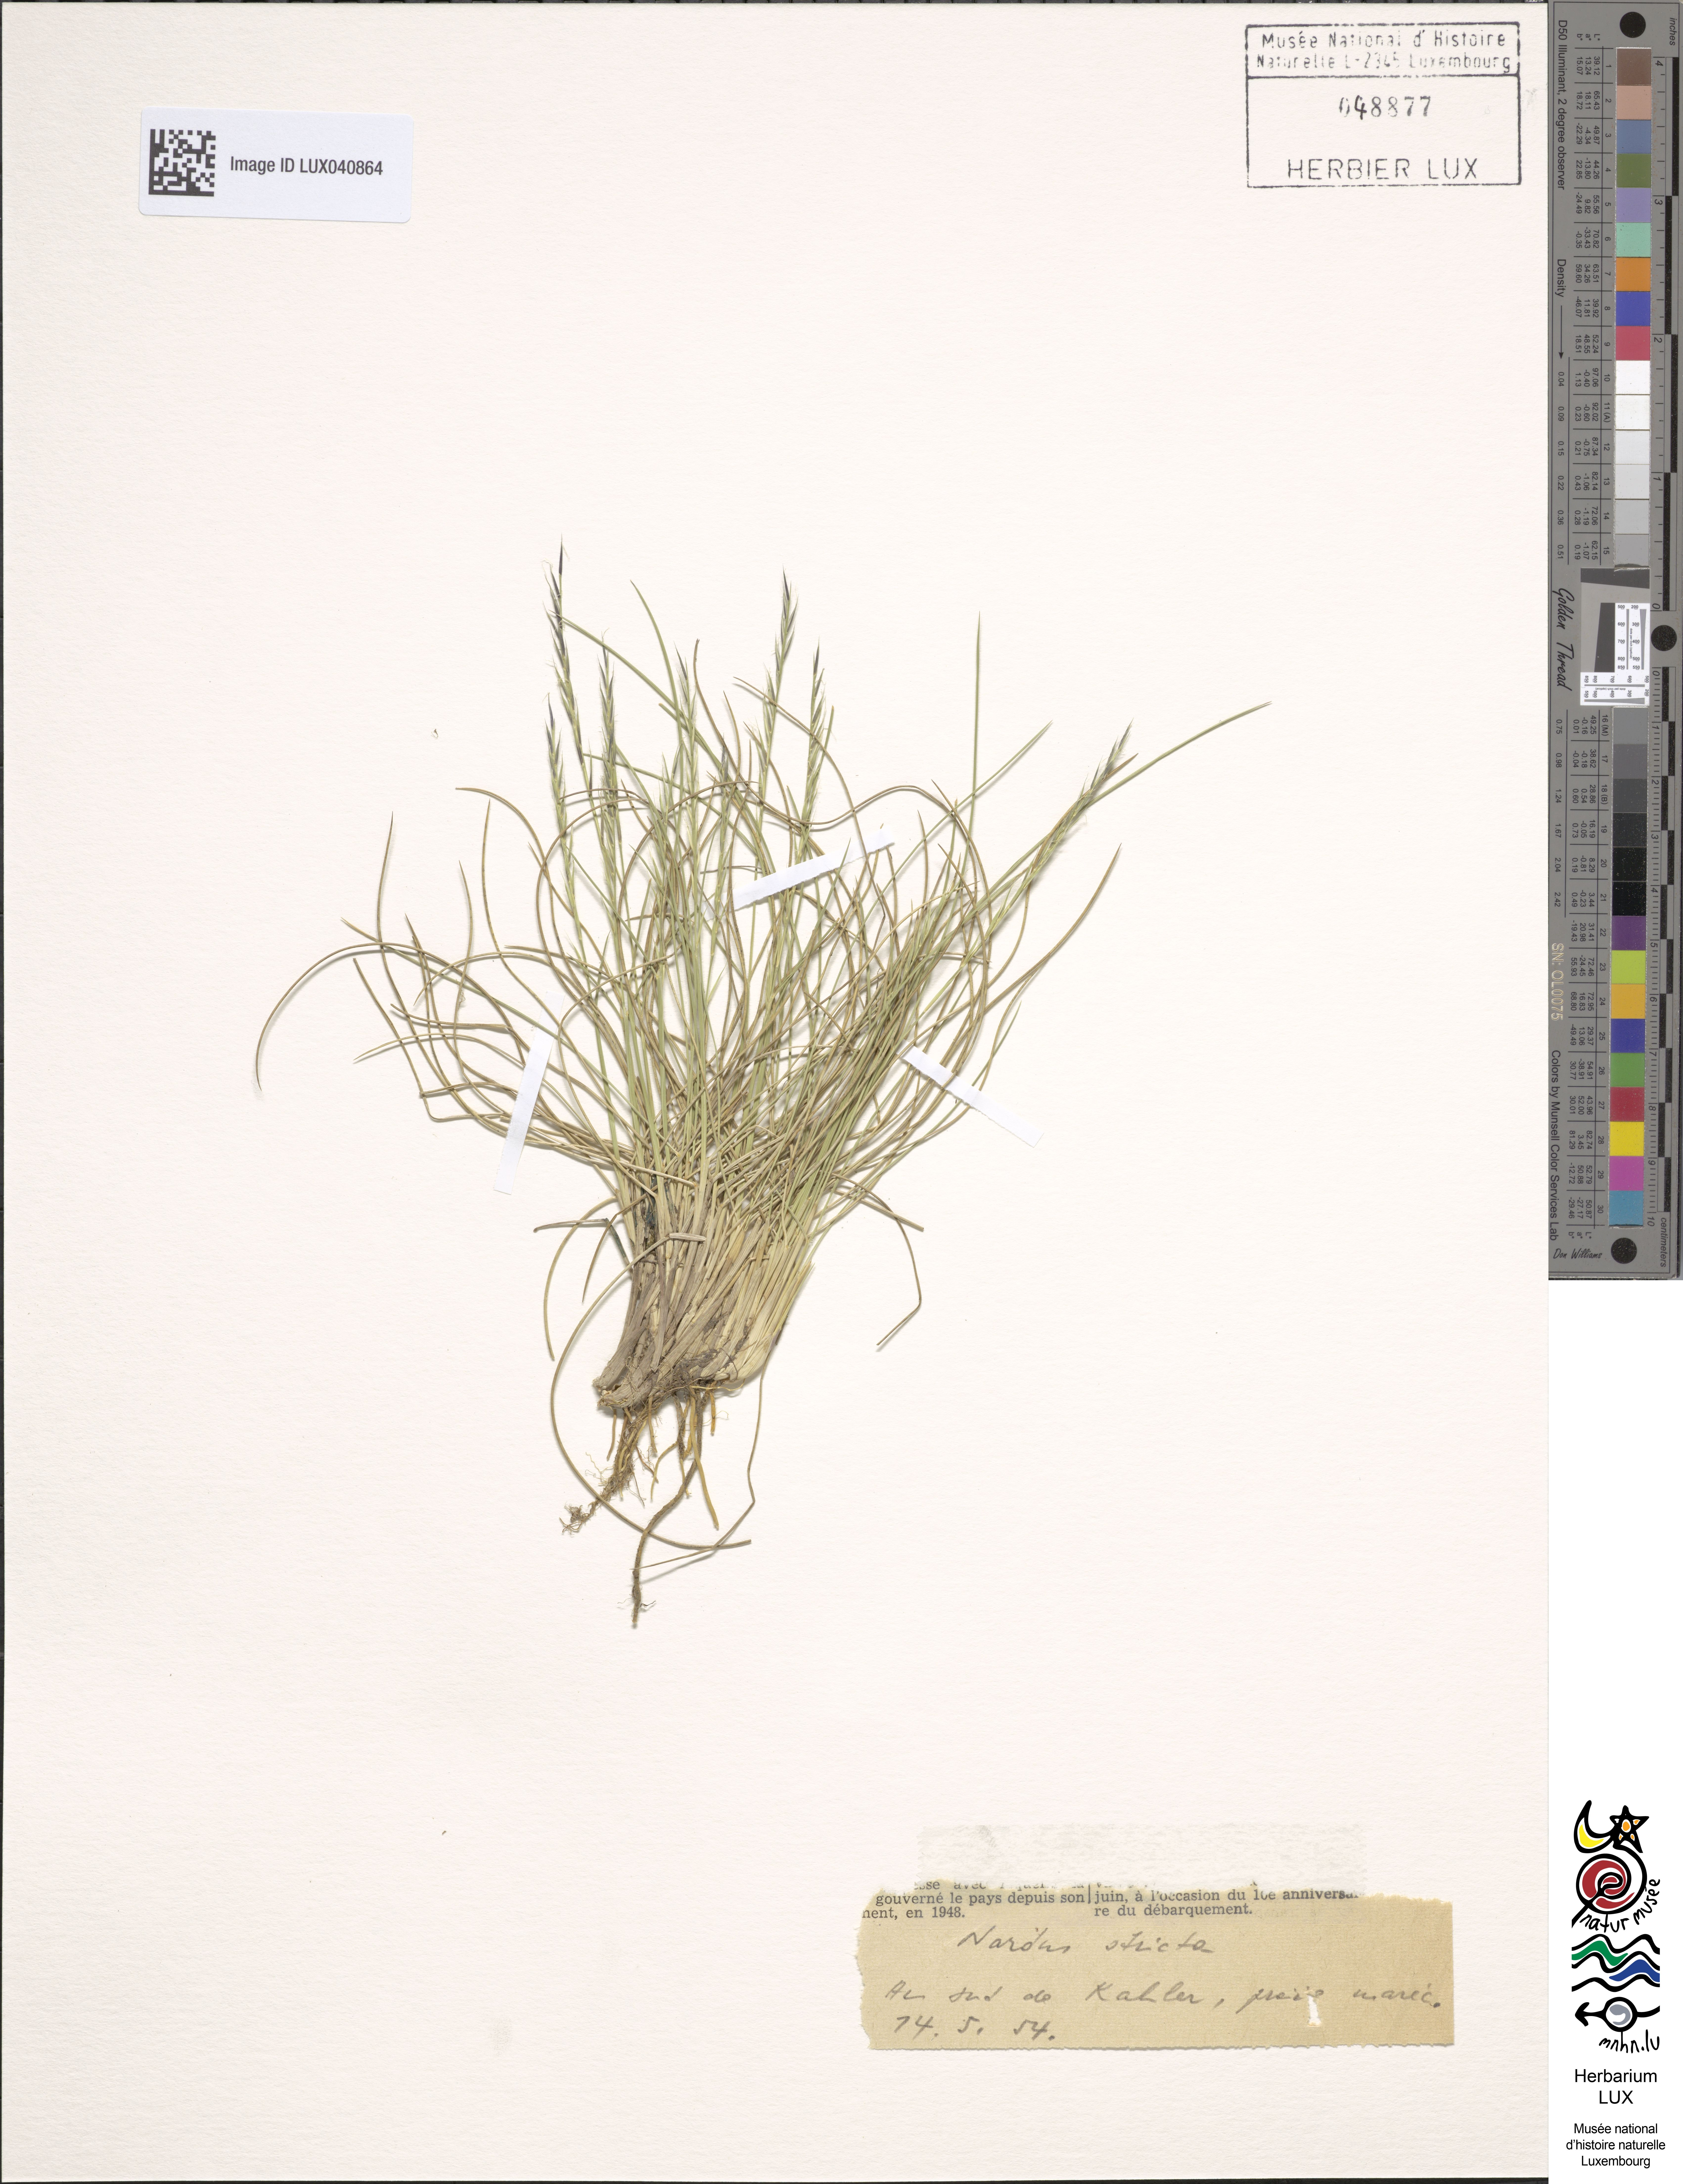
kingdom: Plantae
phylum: Tracheophyta
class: Liliopsida
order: Poales
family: Poaceae
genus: Nardus
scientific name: Nardus stricta
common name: Mat-grass
